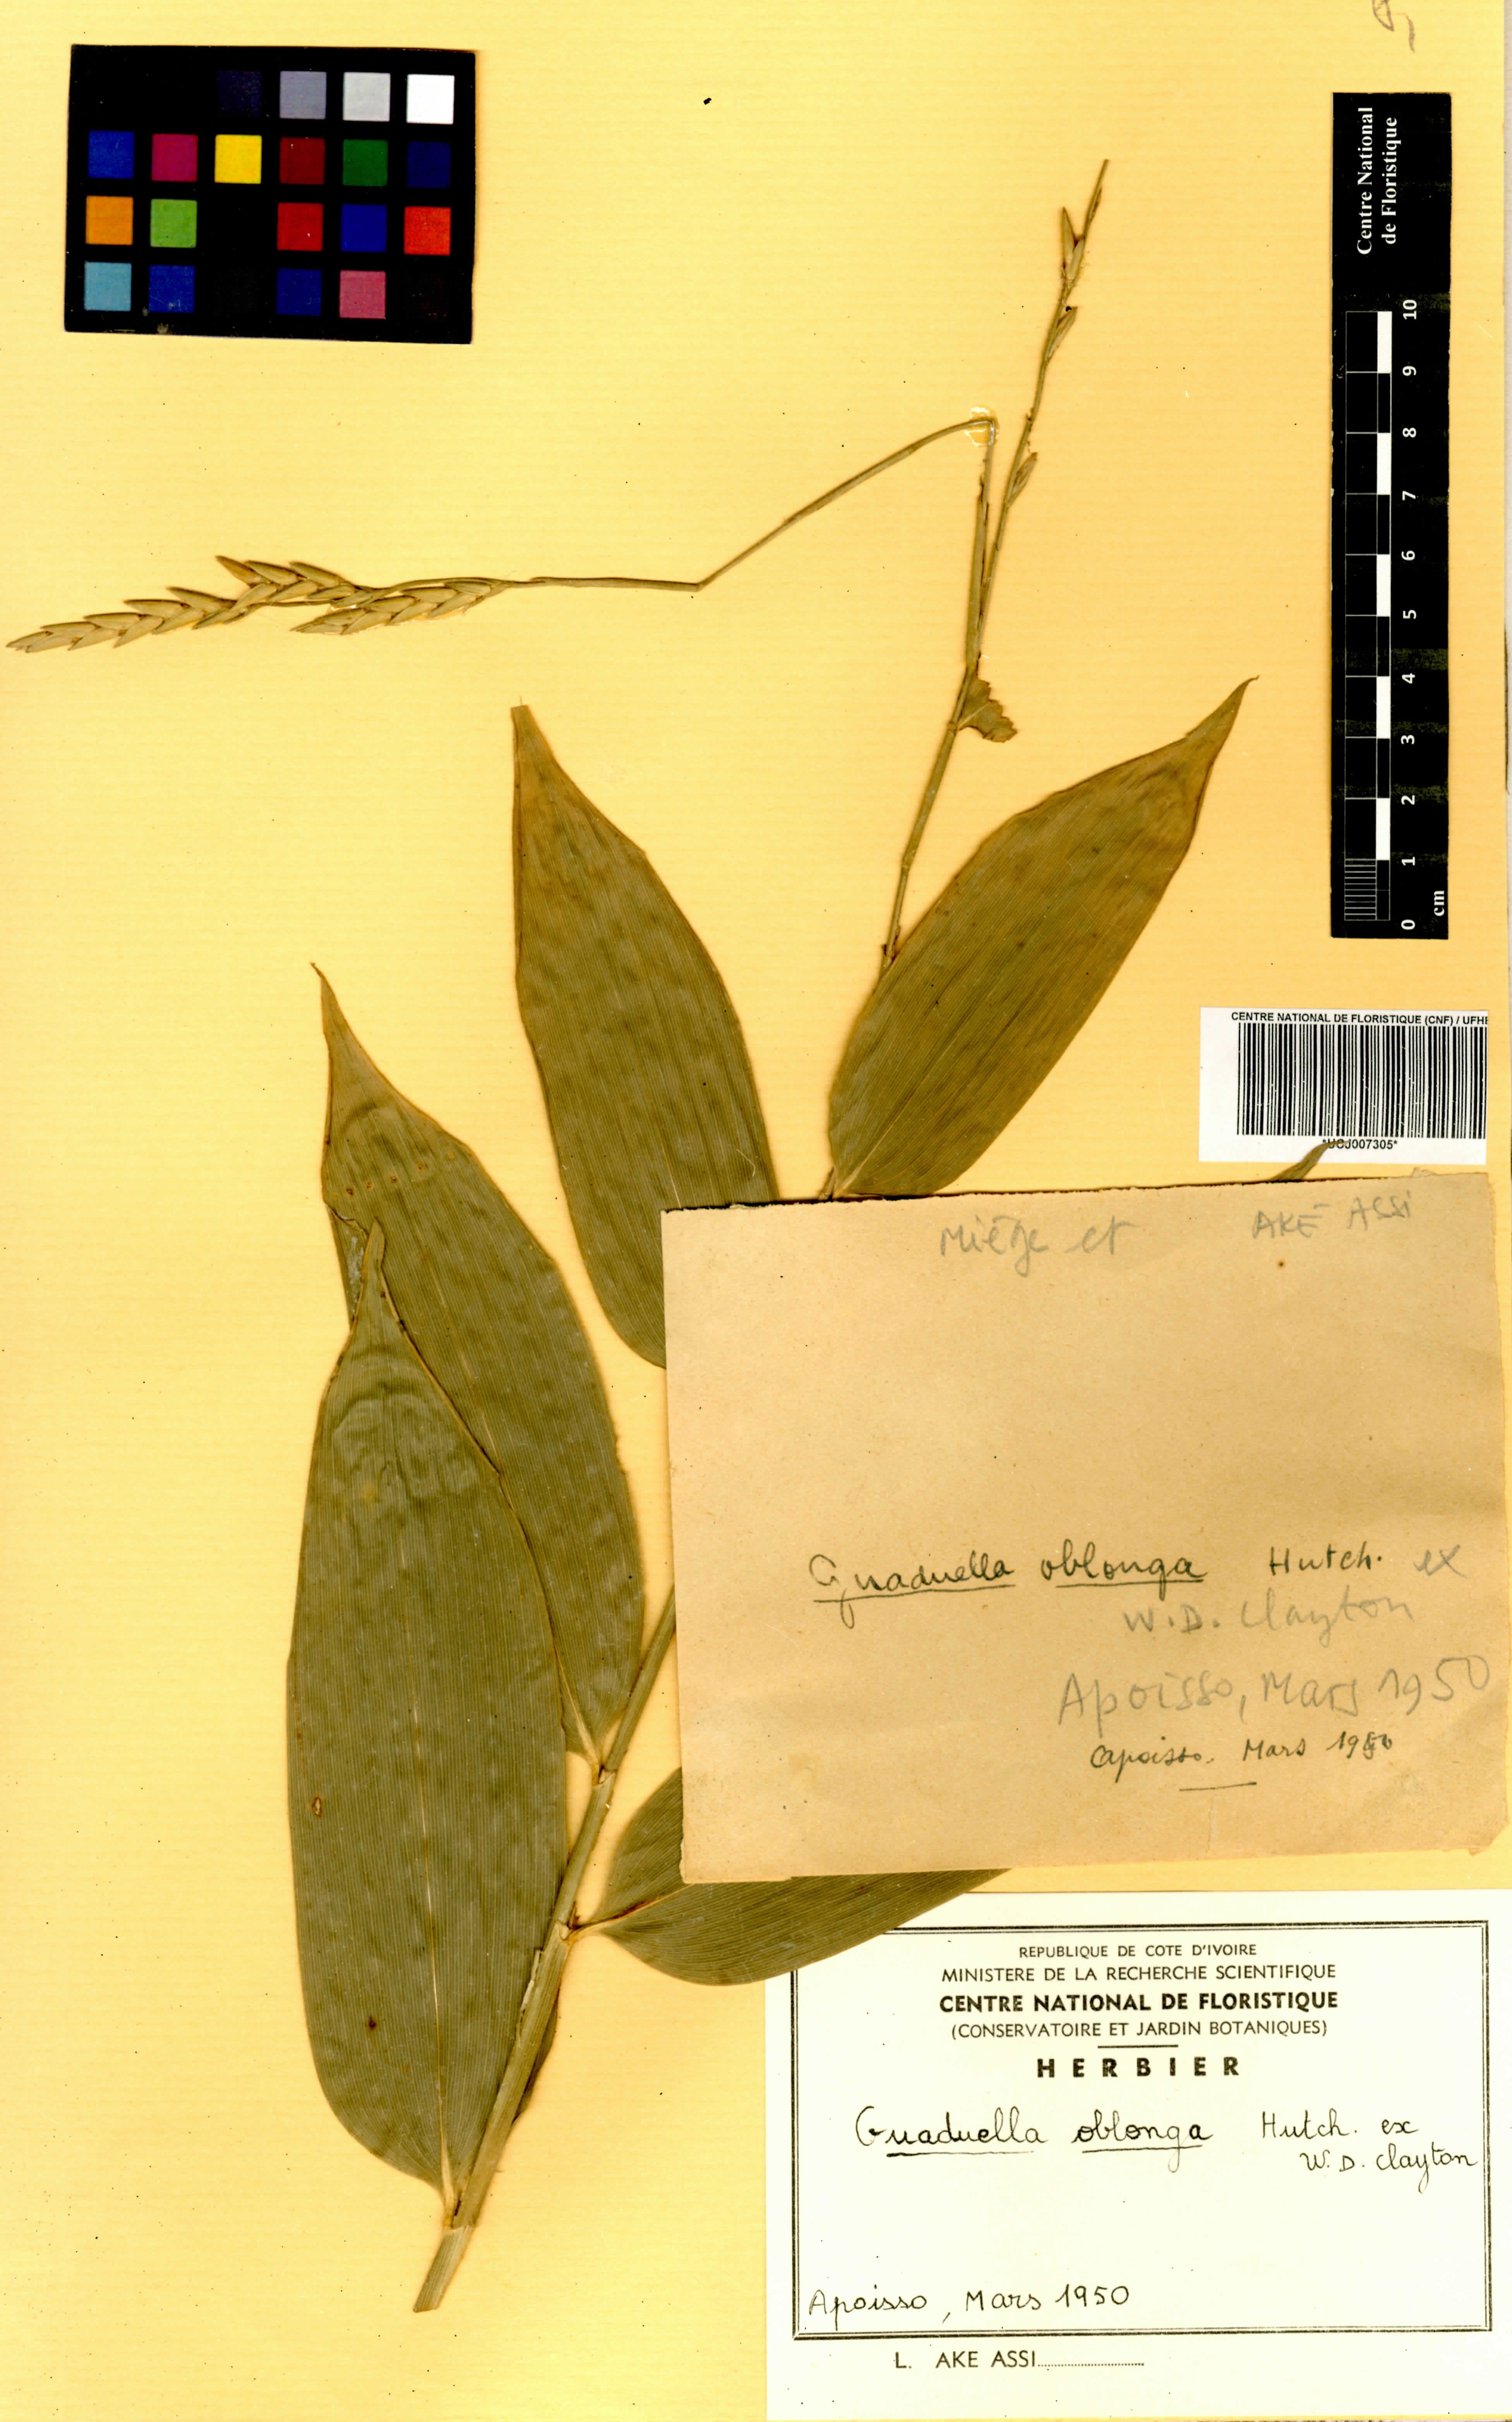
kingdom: Plantae
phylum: Tracheophyta
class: Liliopsida
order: Poales
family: Poaceae
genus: Guaduella
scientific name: Guaduella oblonga
